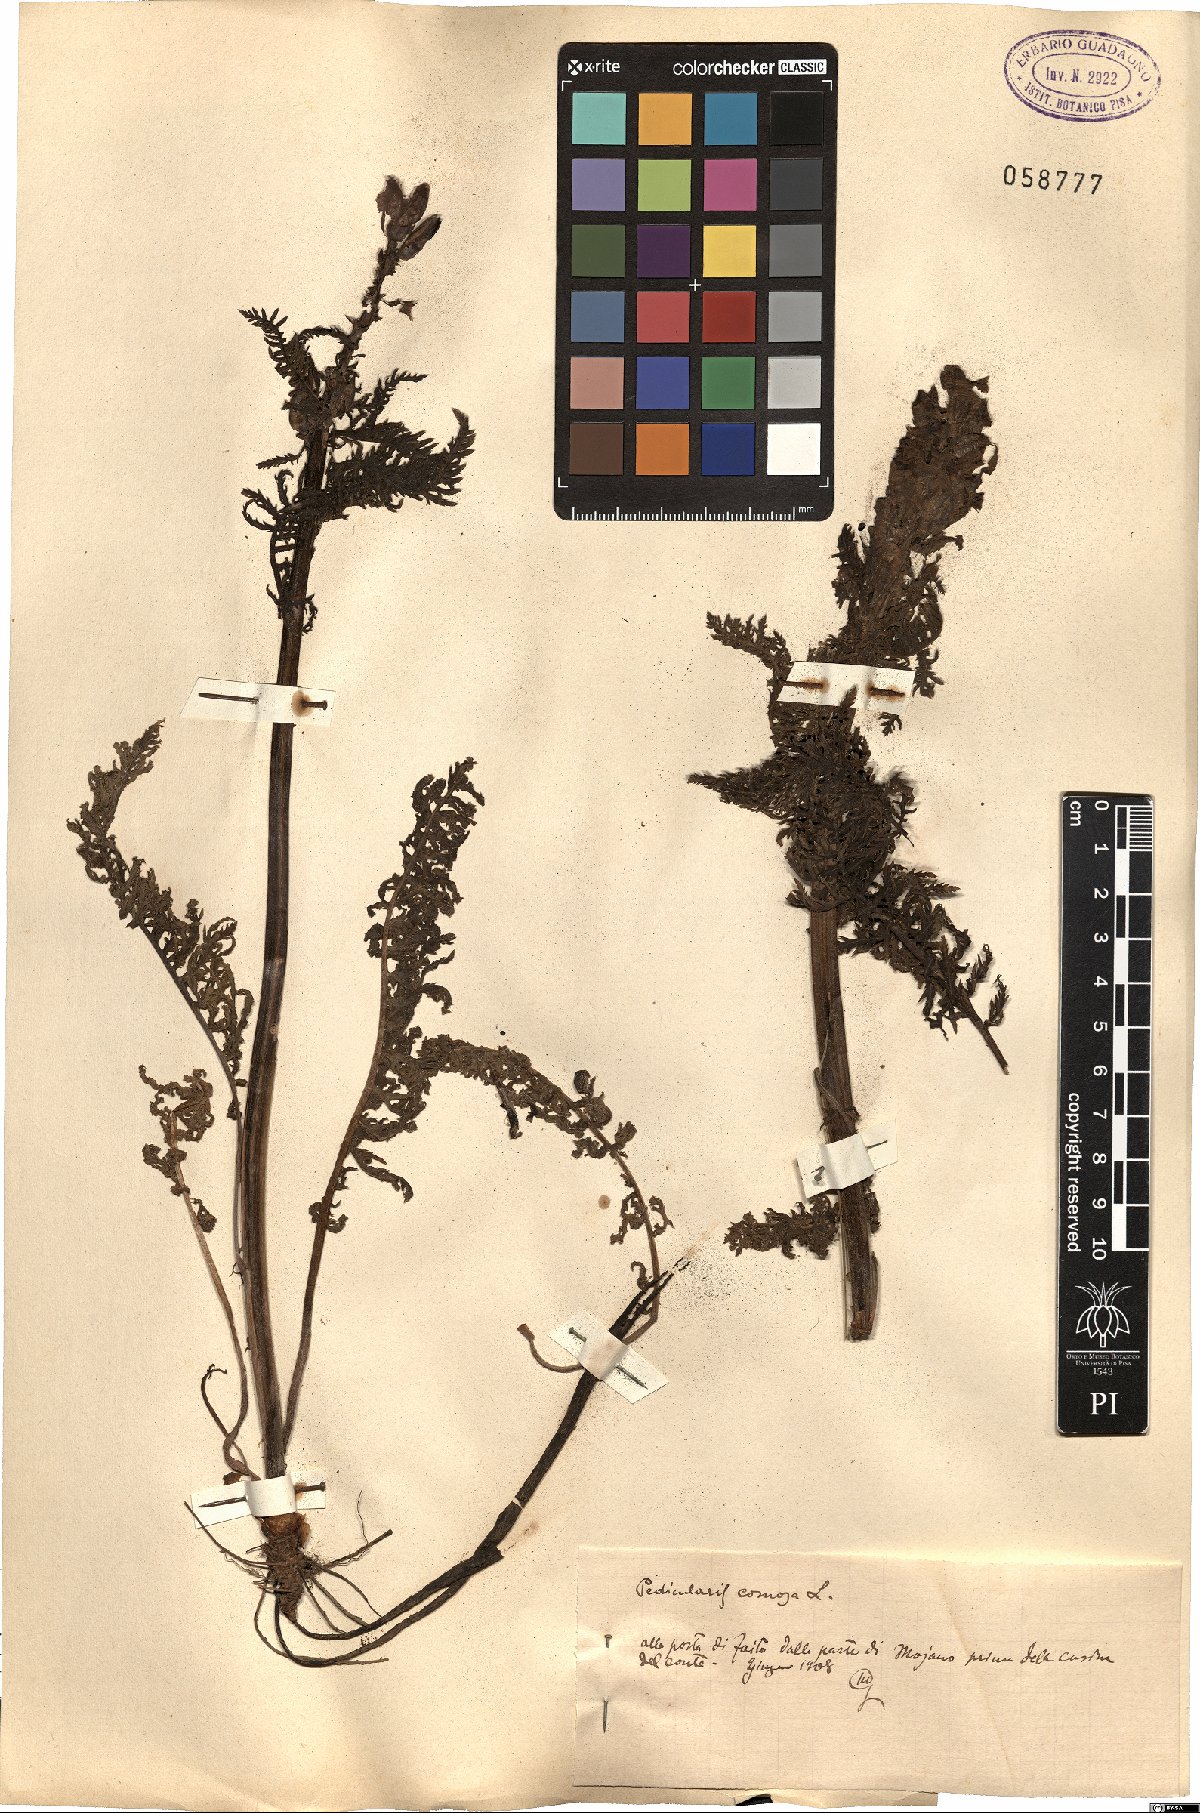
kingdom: Plantae
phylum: Tracheophyta
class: Magnoliopsida
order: Lamiales
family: Orobanchaceae
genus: Pedicularis
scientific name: Pedicularis comosa
